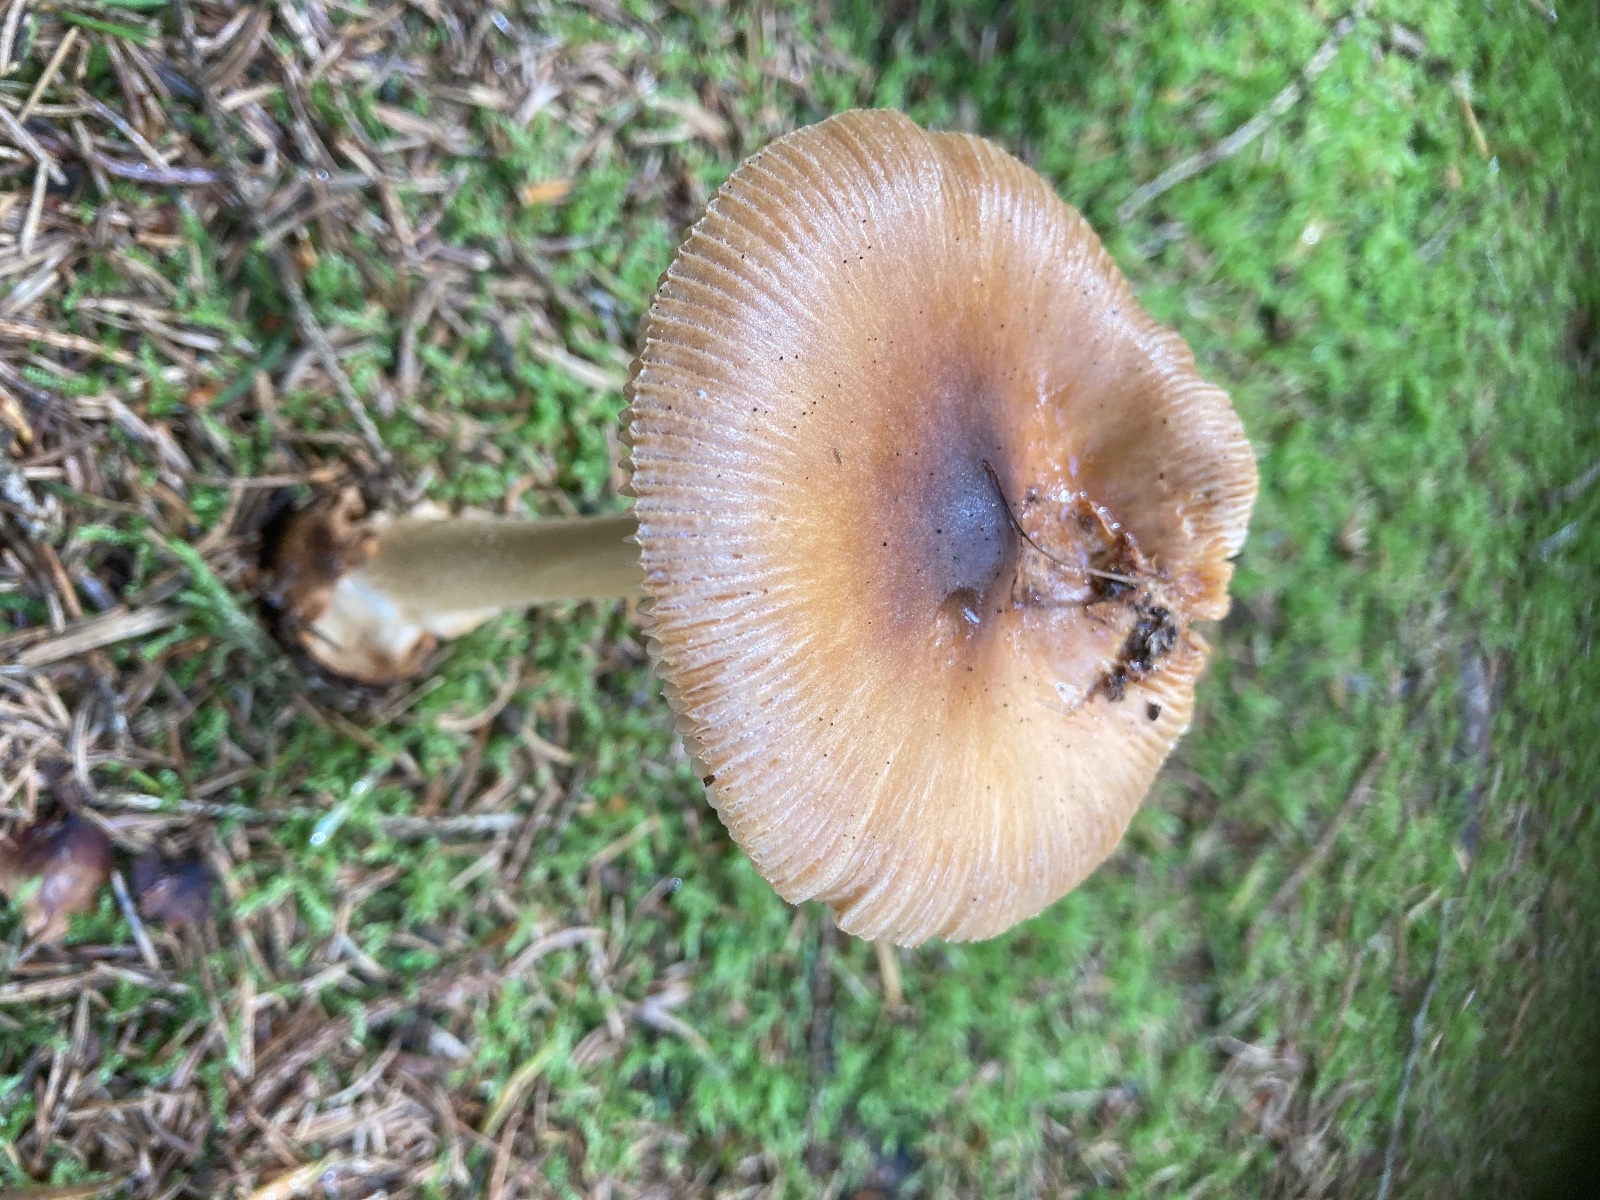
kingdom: Fungi
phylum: Basidiomycota
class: Agaricomycetes
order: Agaricales
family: Amanitaceae
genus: Amanita
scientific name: Amanita fulva
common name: brun kam-fluesvamp
